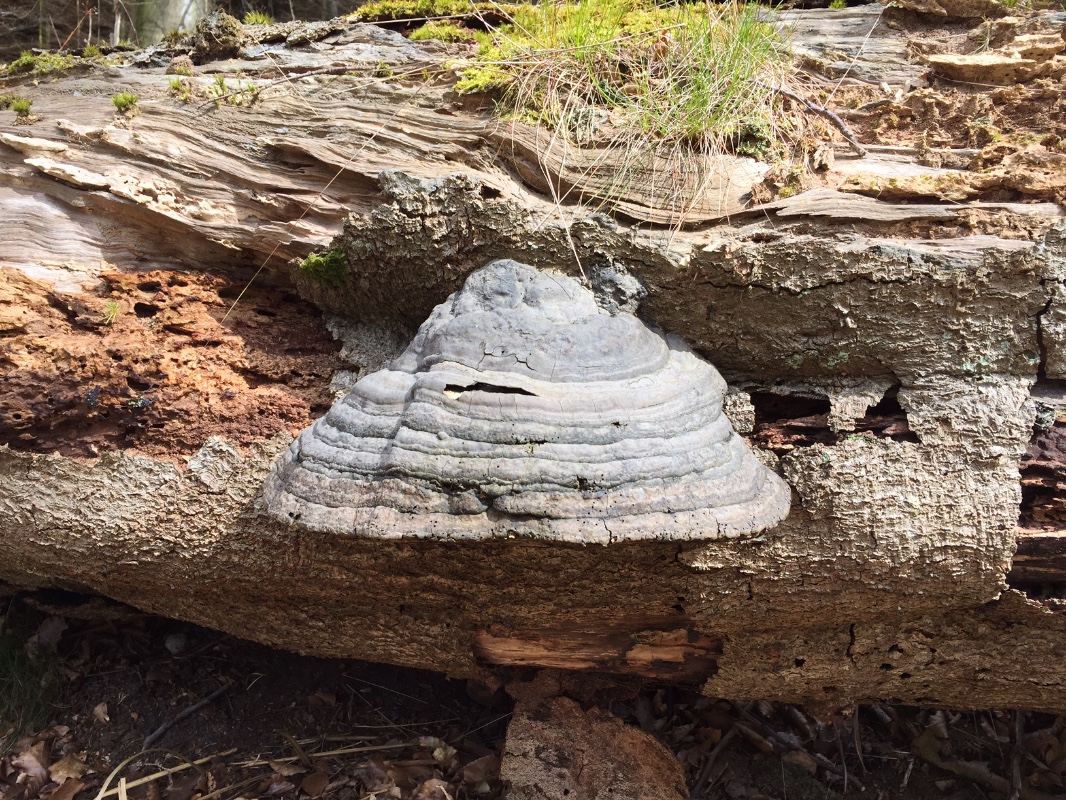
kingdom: Fungi
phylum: Basidiomycota
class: Agaricomycetes
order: Polyporales
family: Polyporaceae
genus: Fomes
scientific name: Fomes fomentarius
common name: tøndersvamp
